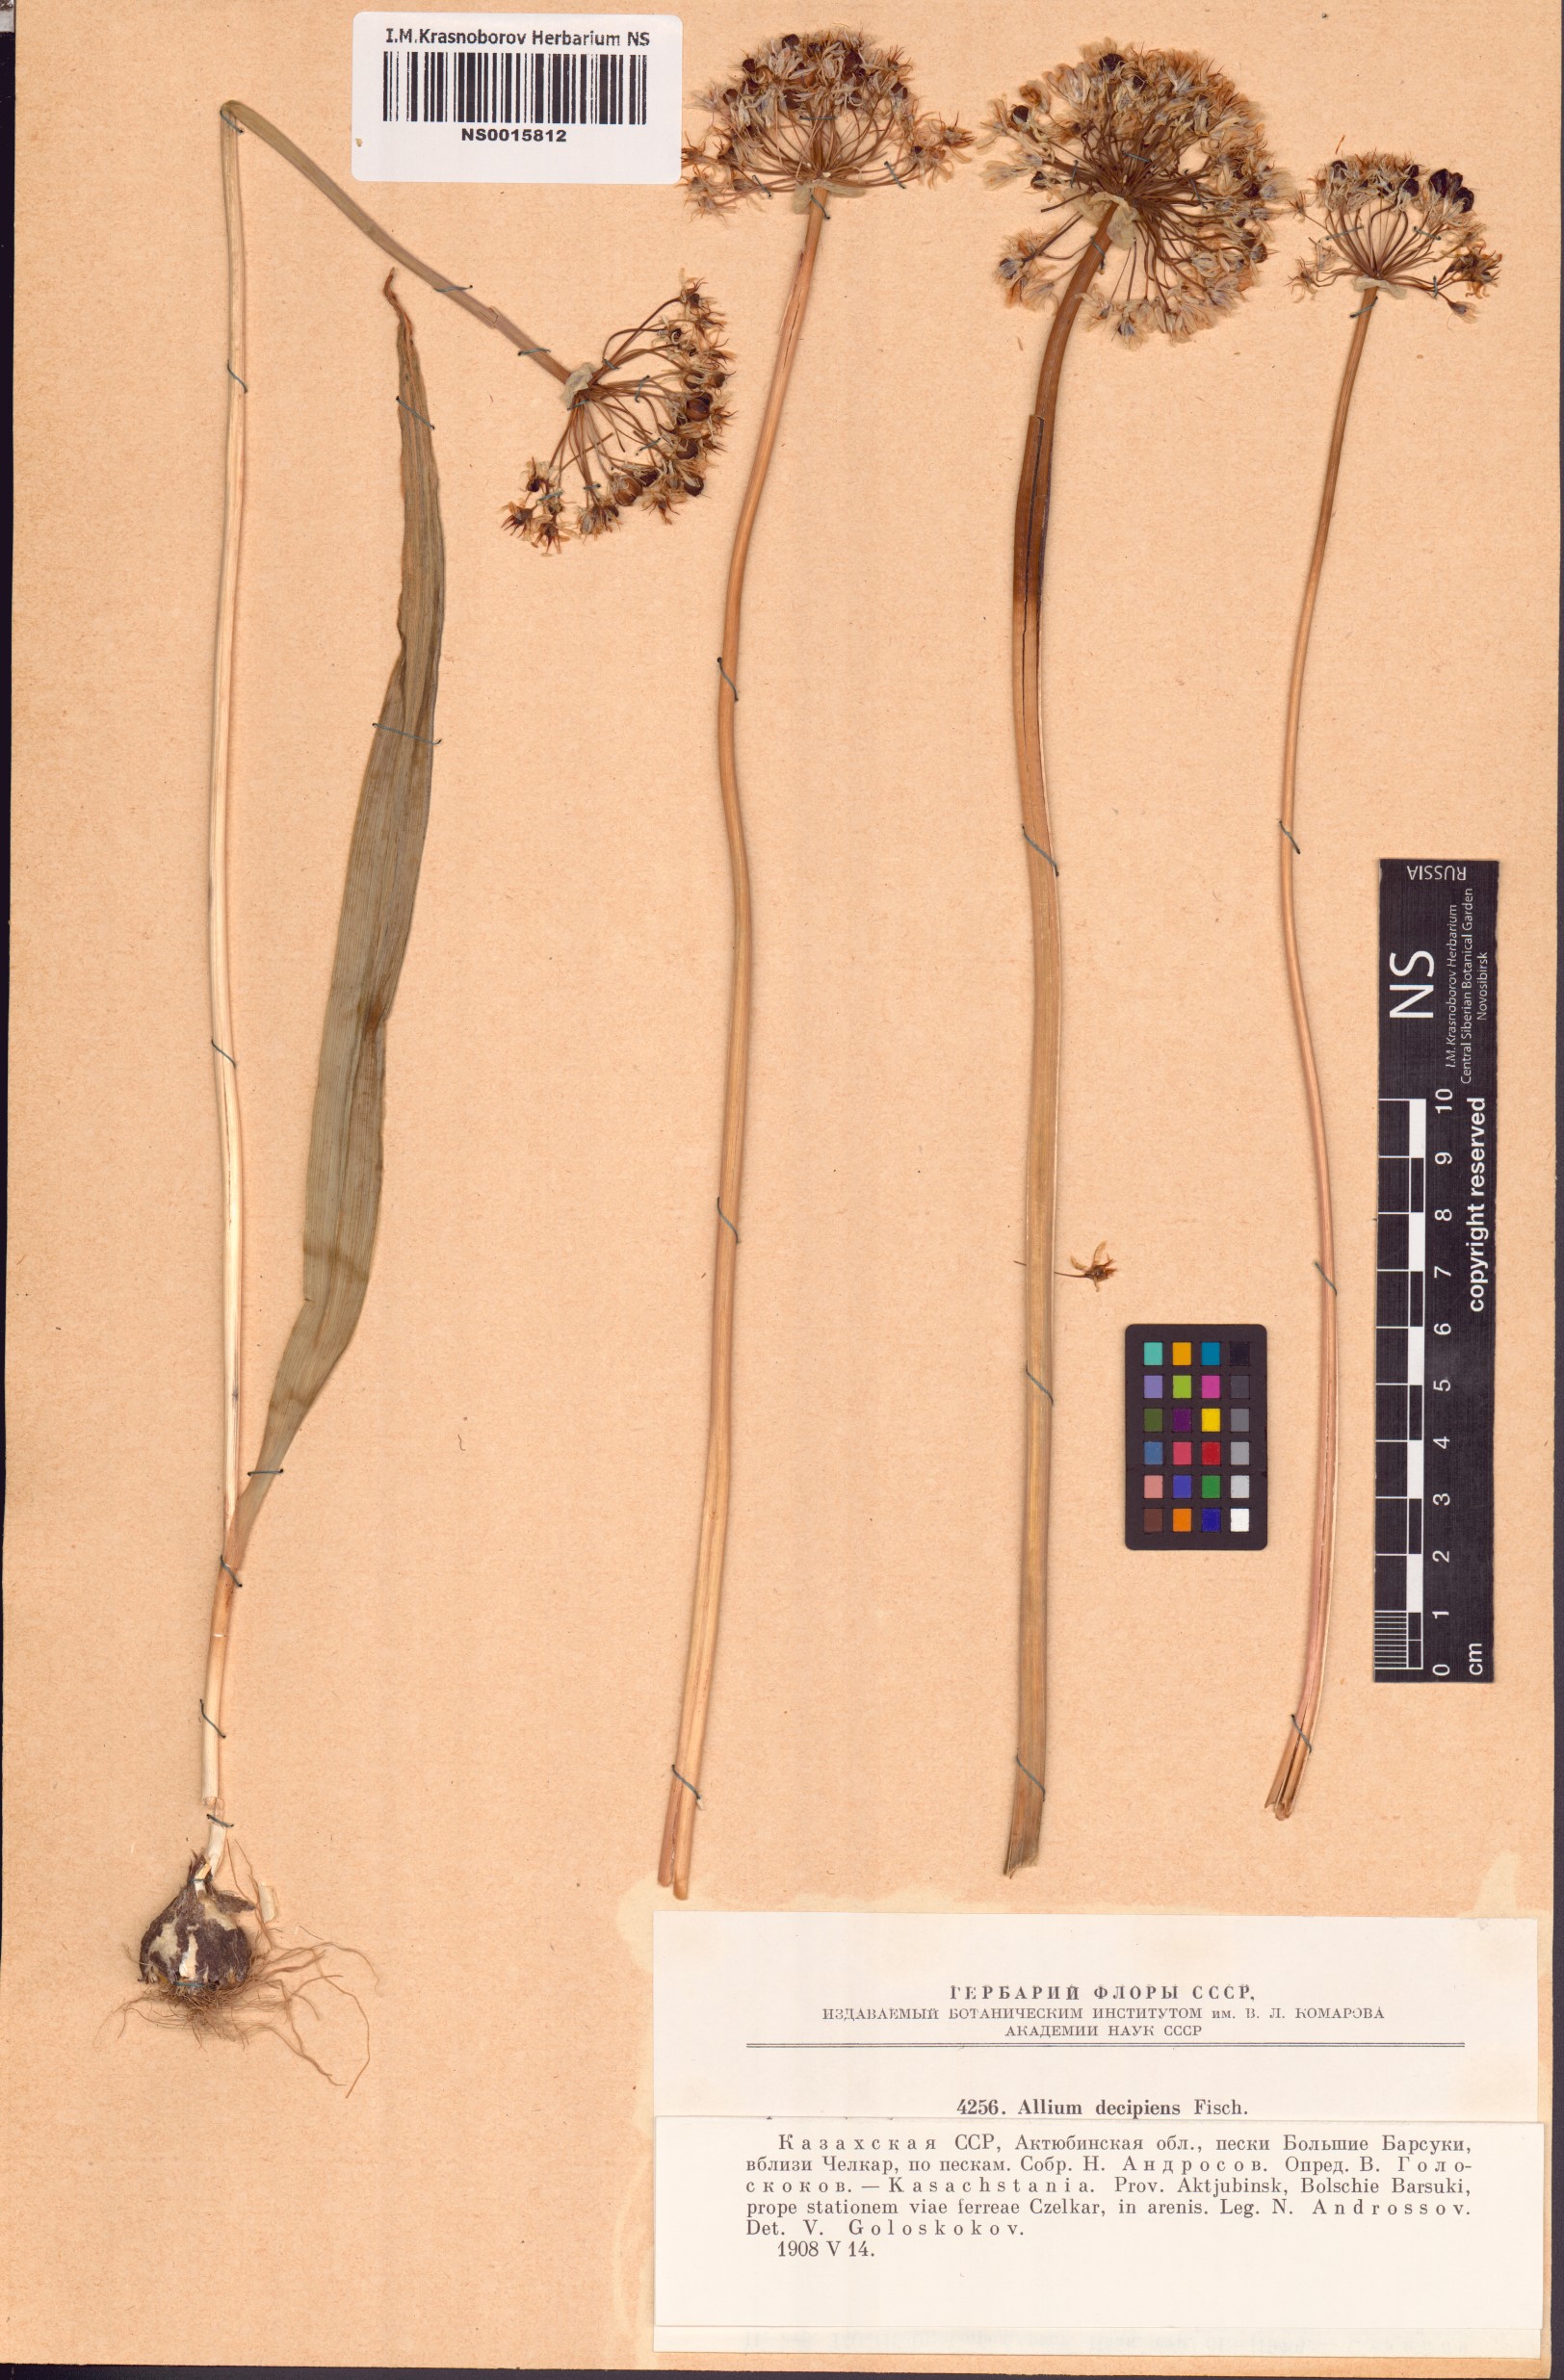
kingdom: Plantae
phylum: Tracheophyta
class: Liliopsida
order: Asparagales
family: Amaryllidaceae
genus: Allium
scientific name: Allium decipiens
